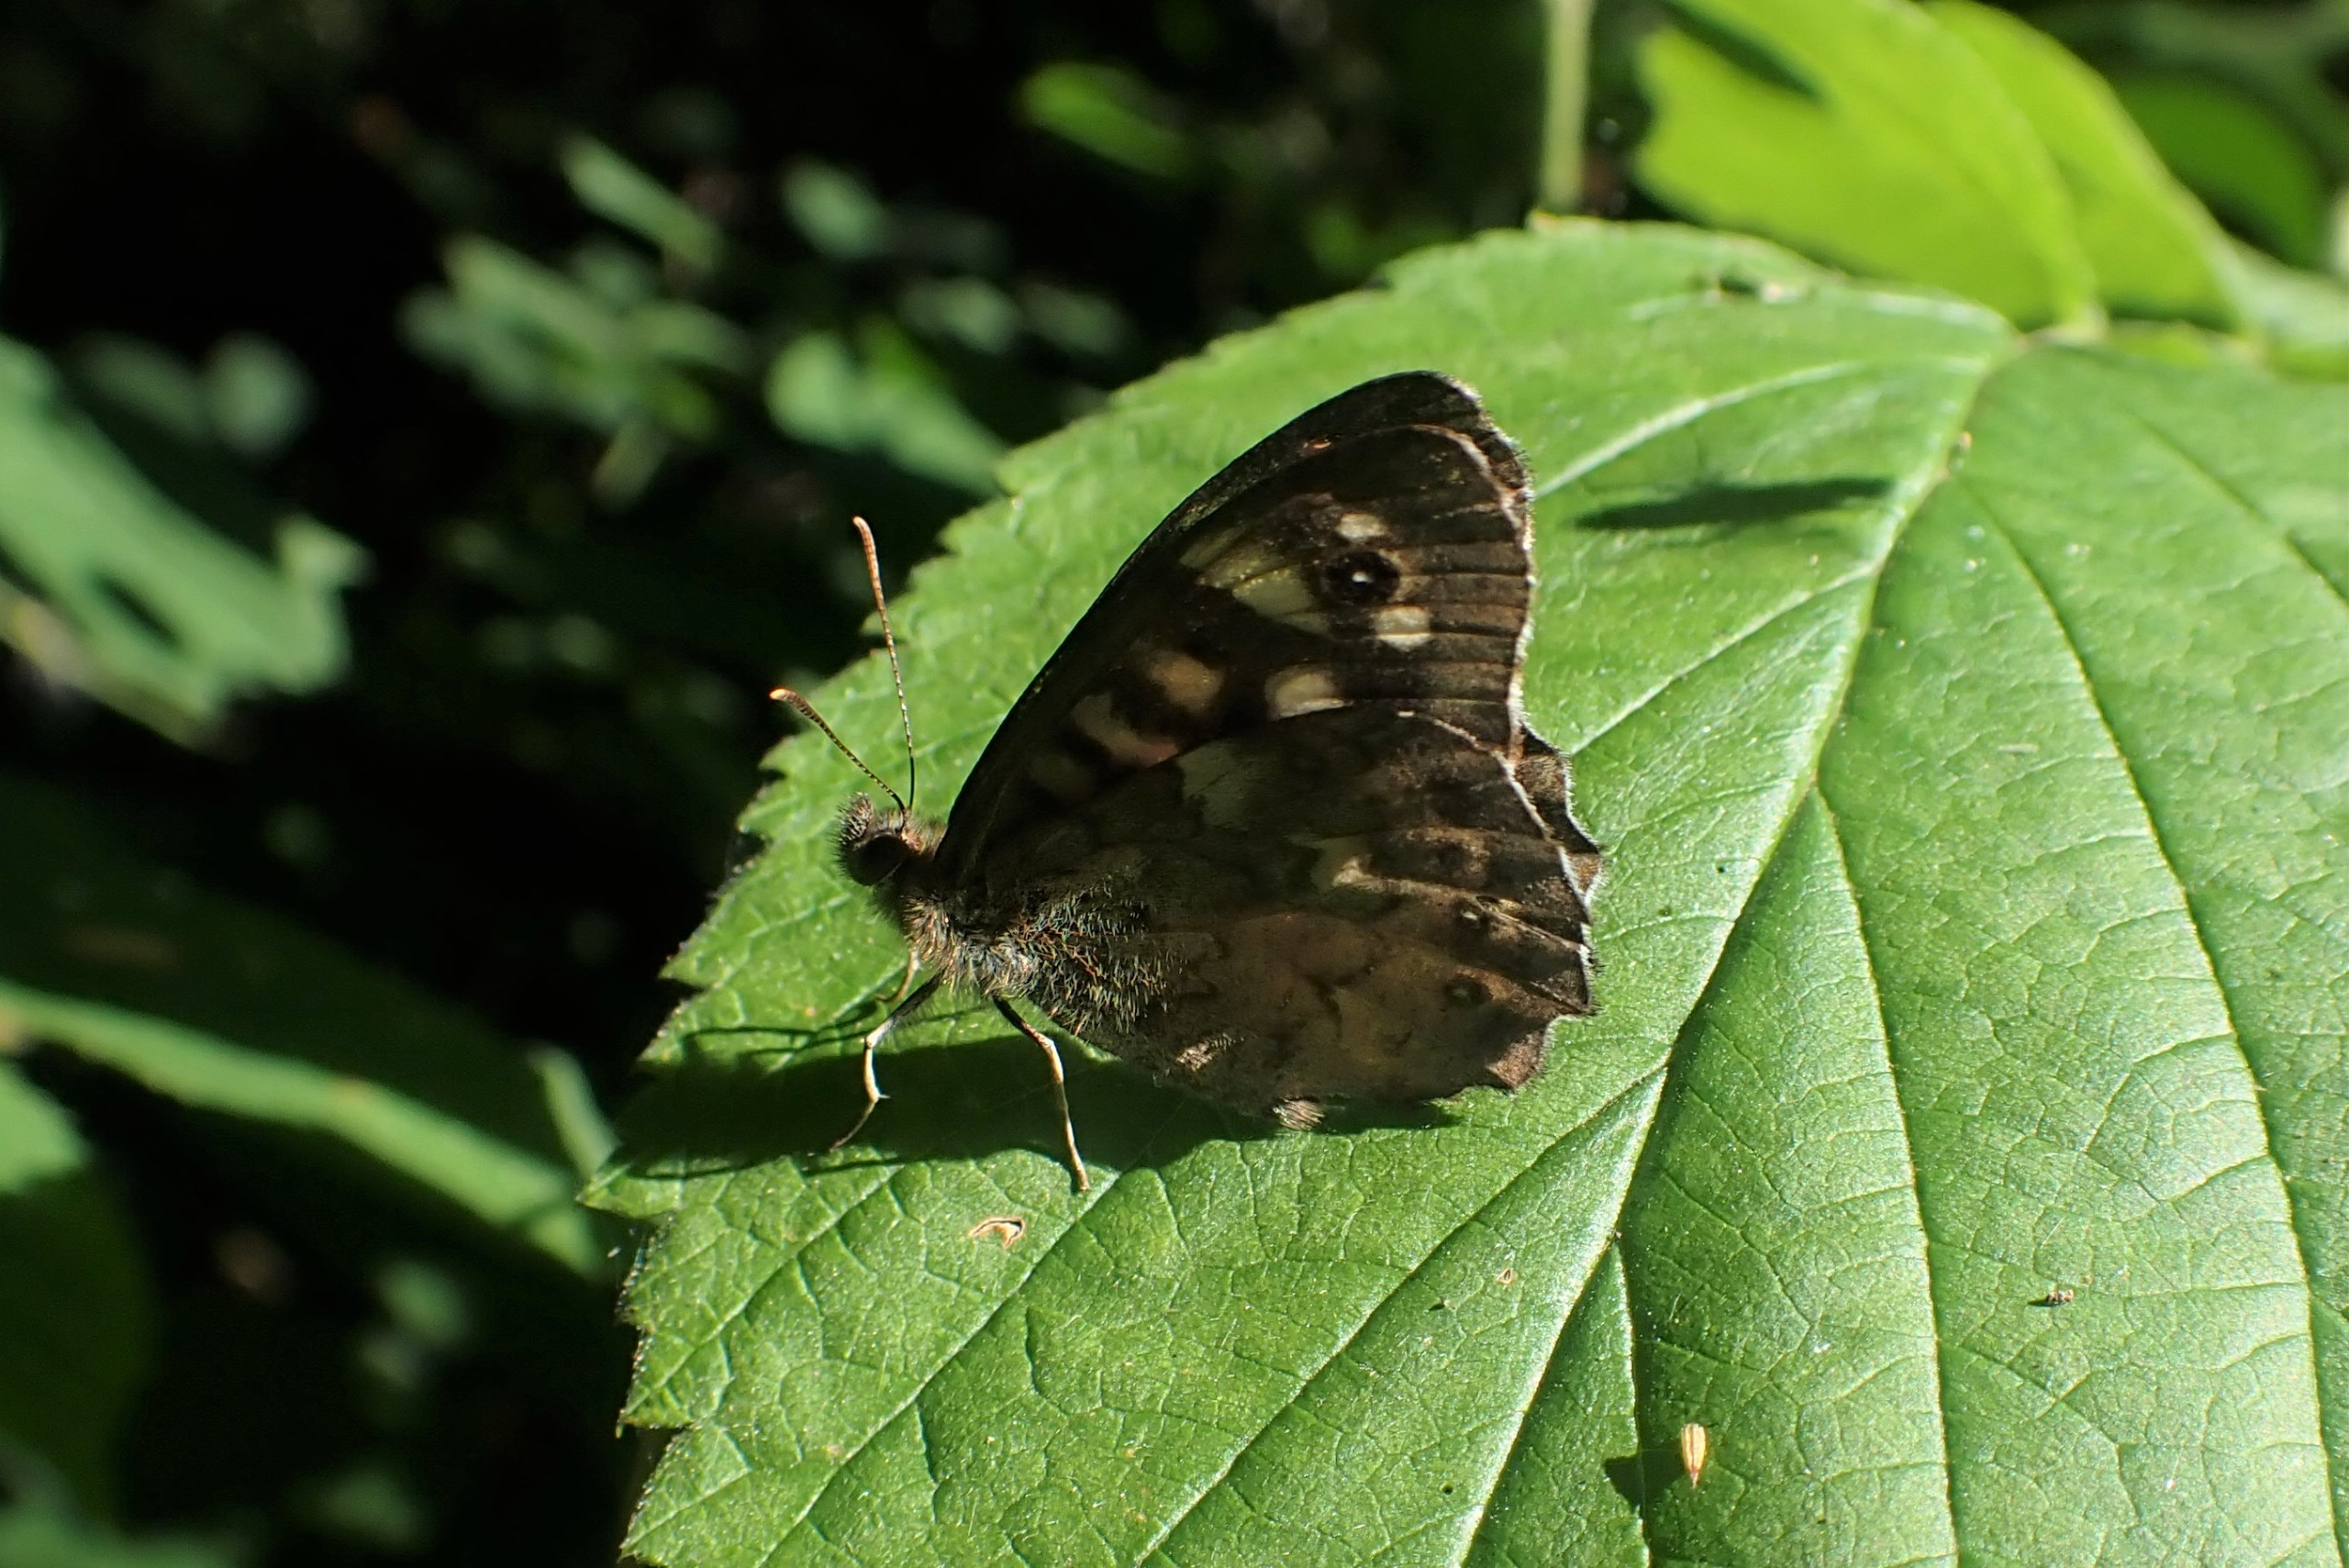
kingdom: Animalia
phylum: Arthropoda
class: Insecta
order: Lepidoptera
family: Nymphalidae
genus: Pararge
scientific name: Pararge aegeria
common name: Skovrandøje
